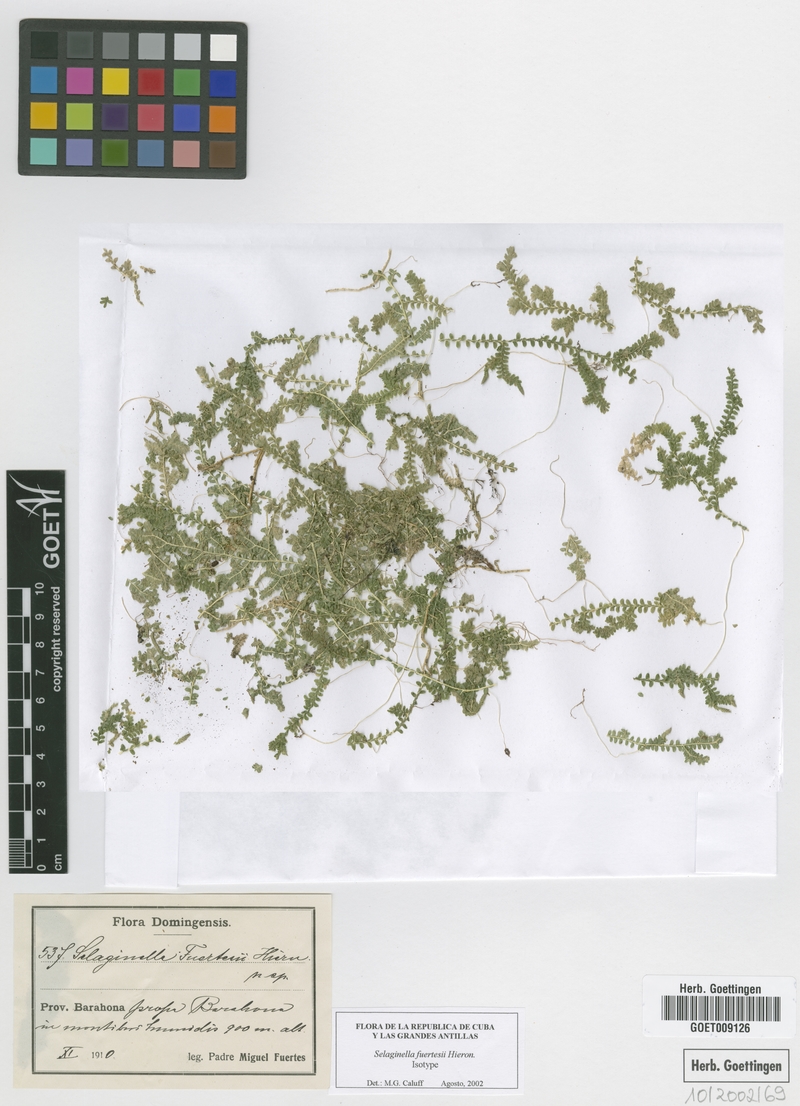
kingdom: Plantae
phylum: Tracheophyta
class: Lycopodiopsida
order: Selaginellales
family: Selaginellaceae
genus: Selaginella
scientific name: Selaginella fuertesii
